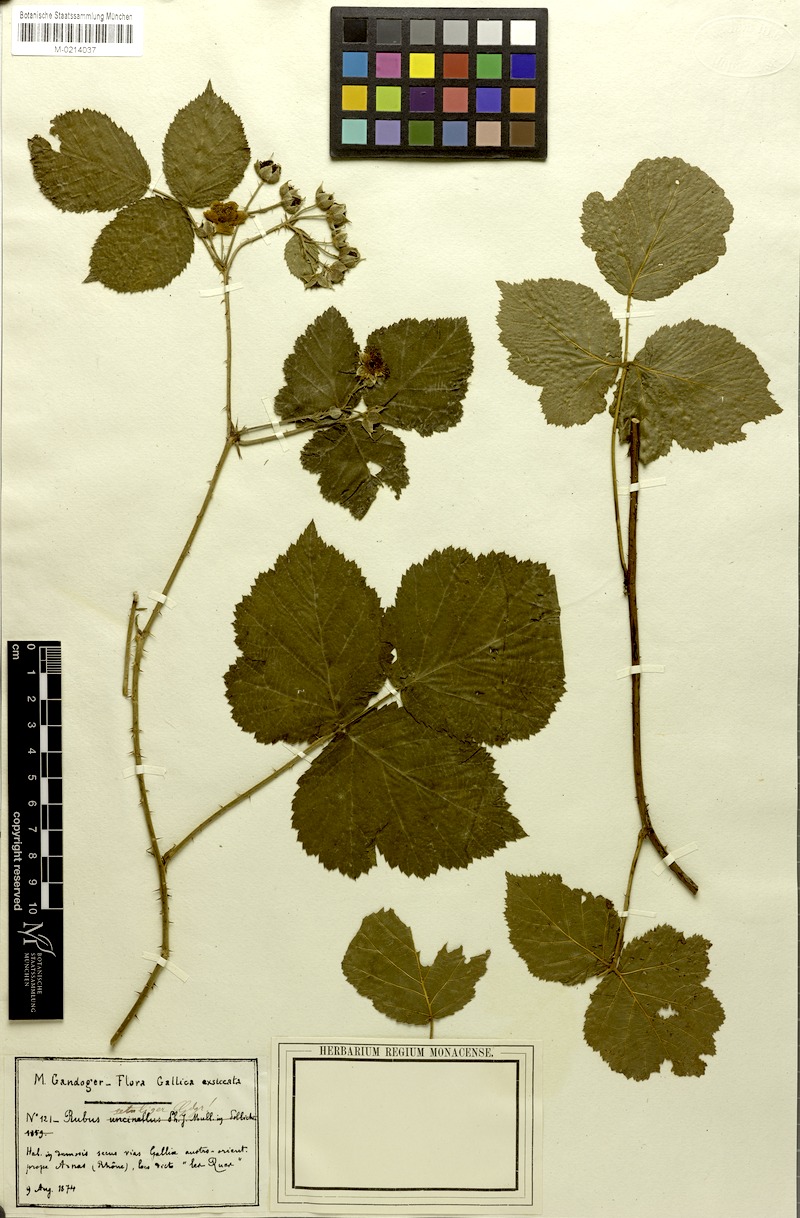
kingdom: Plantae
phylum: Tracheophyta
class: Magnoliopsida
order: Rosales
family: Rosaceae
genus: Rubus
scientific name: Rubus
